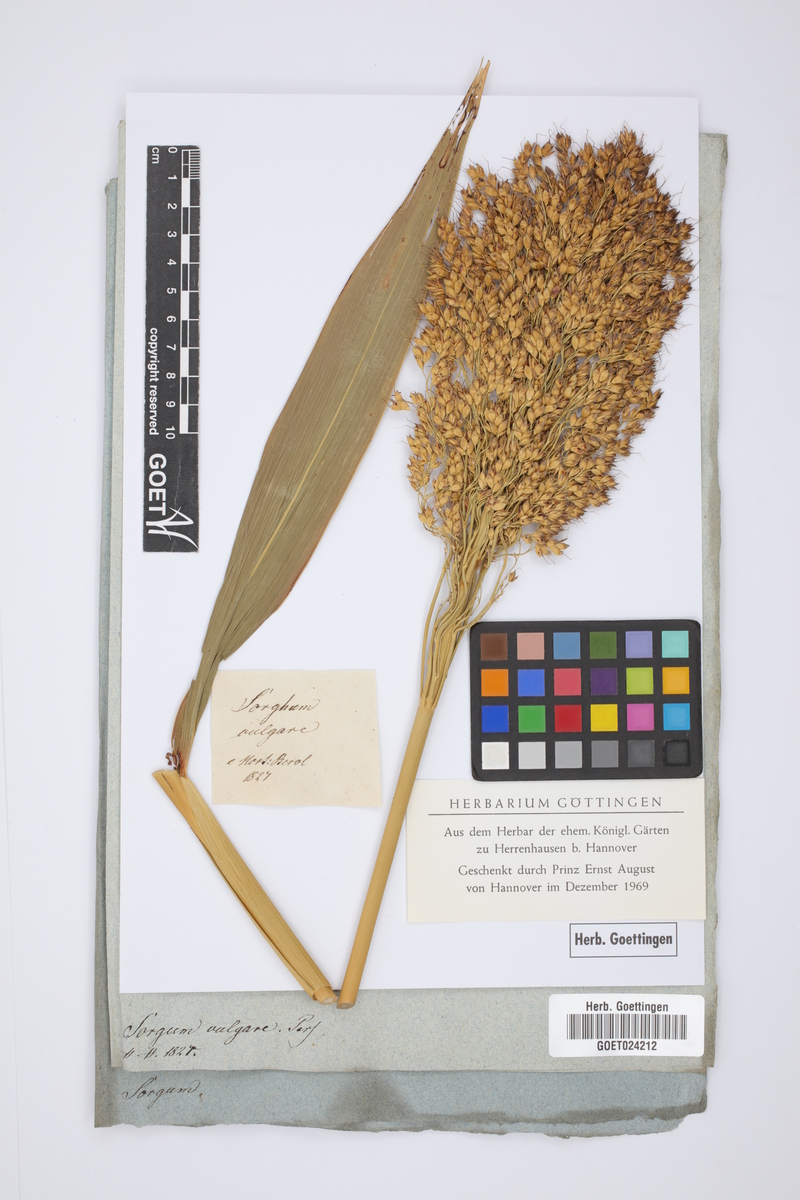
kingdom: Plantae
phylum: Tracheophyta
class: Liliopsida
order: Poales
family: Poaceae
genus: Sorghum
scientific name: Sorghum bicolor
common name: Sorghum
